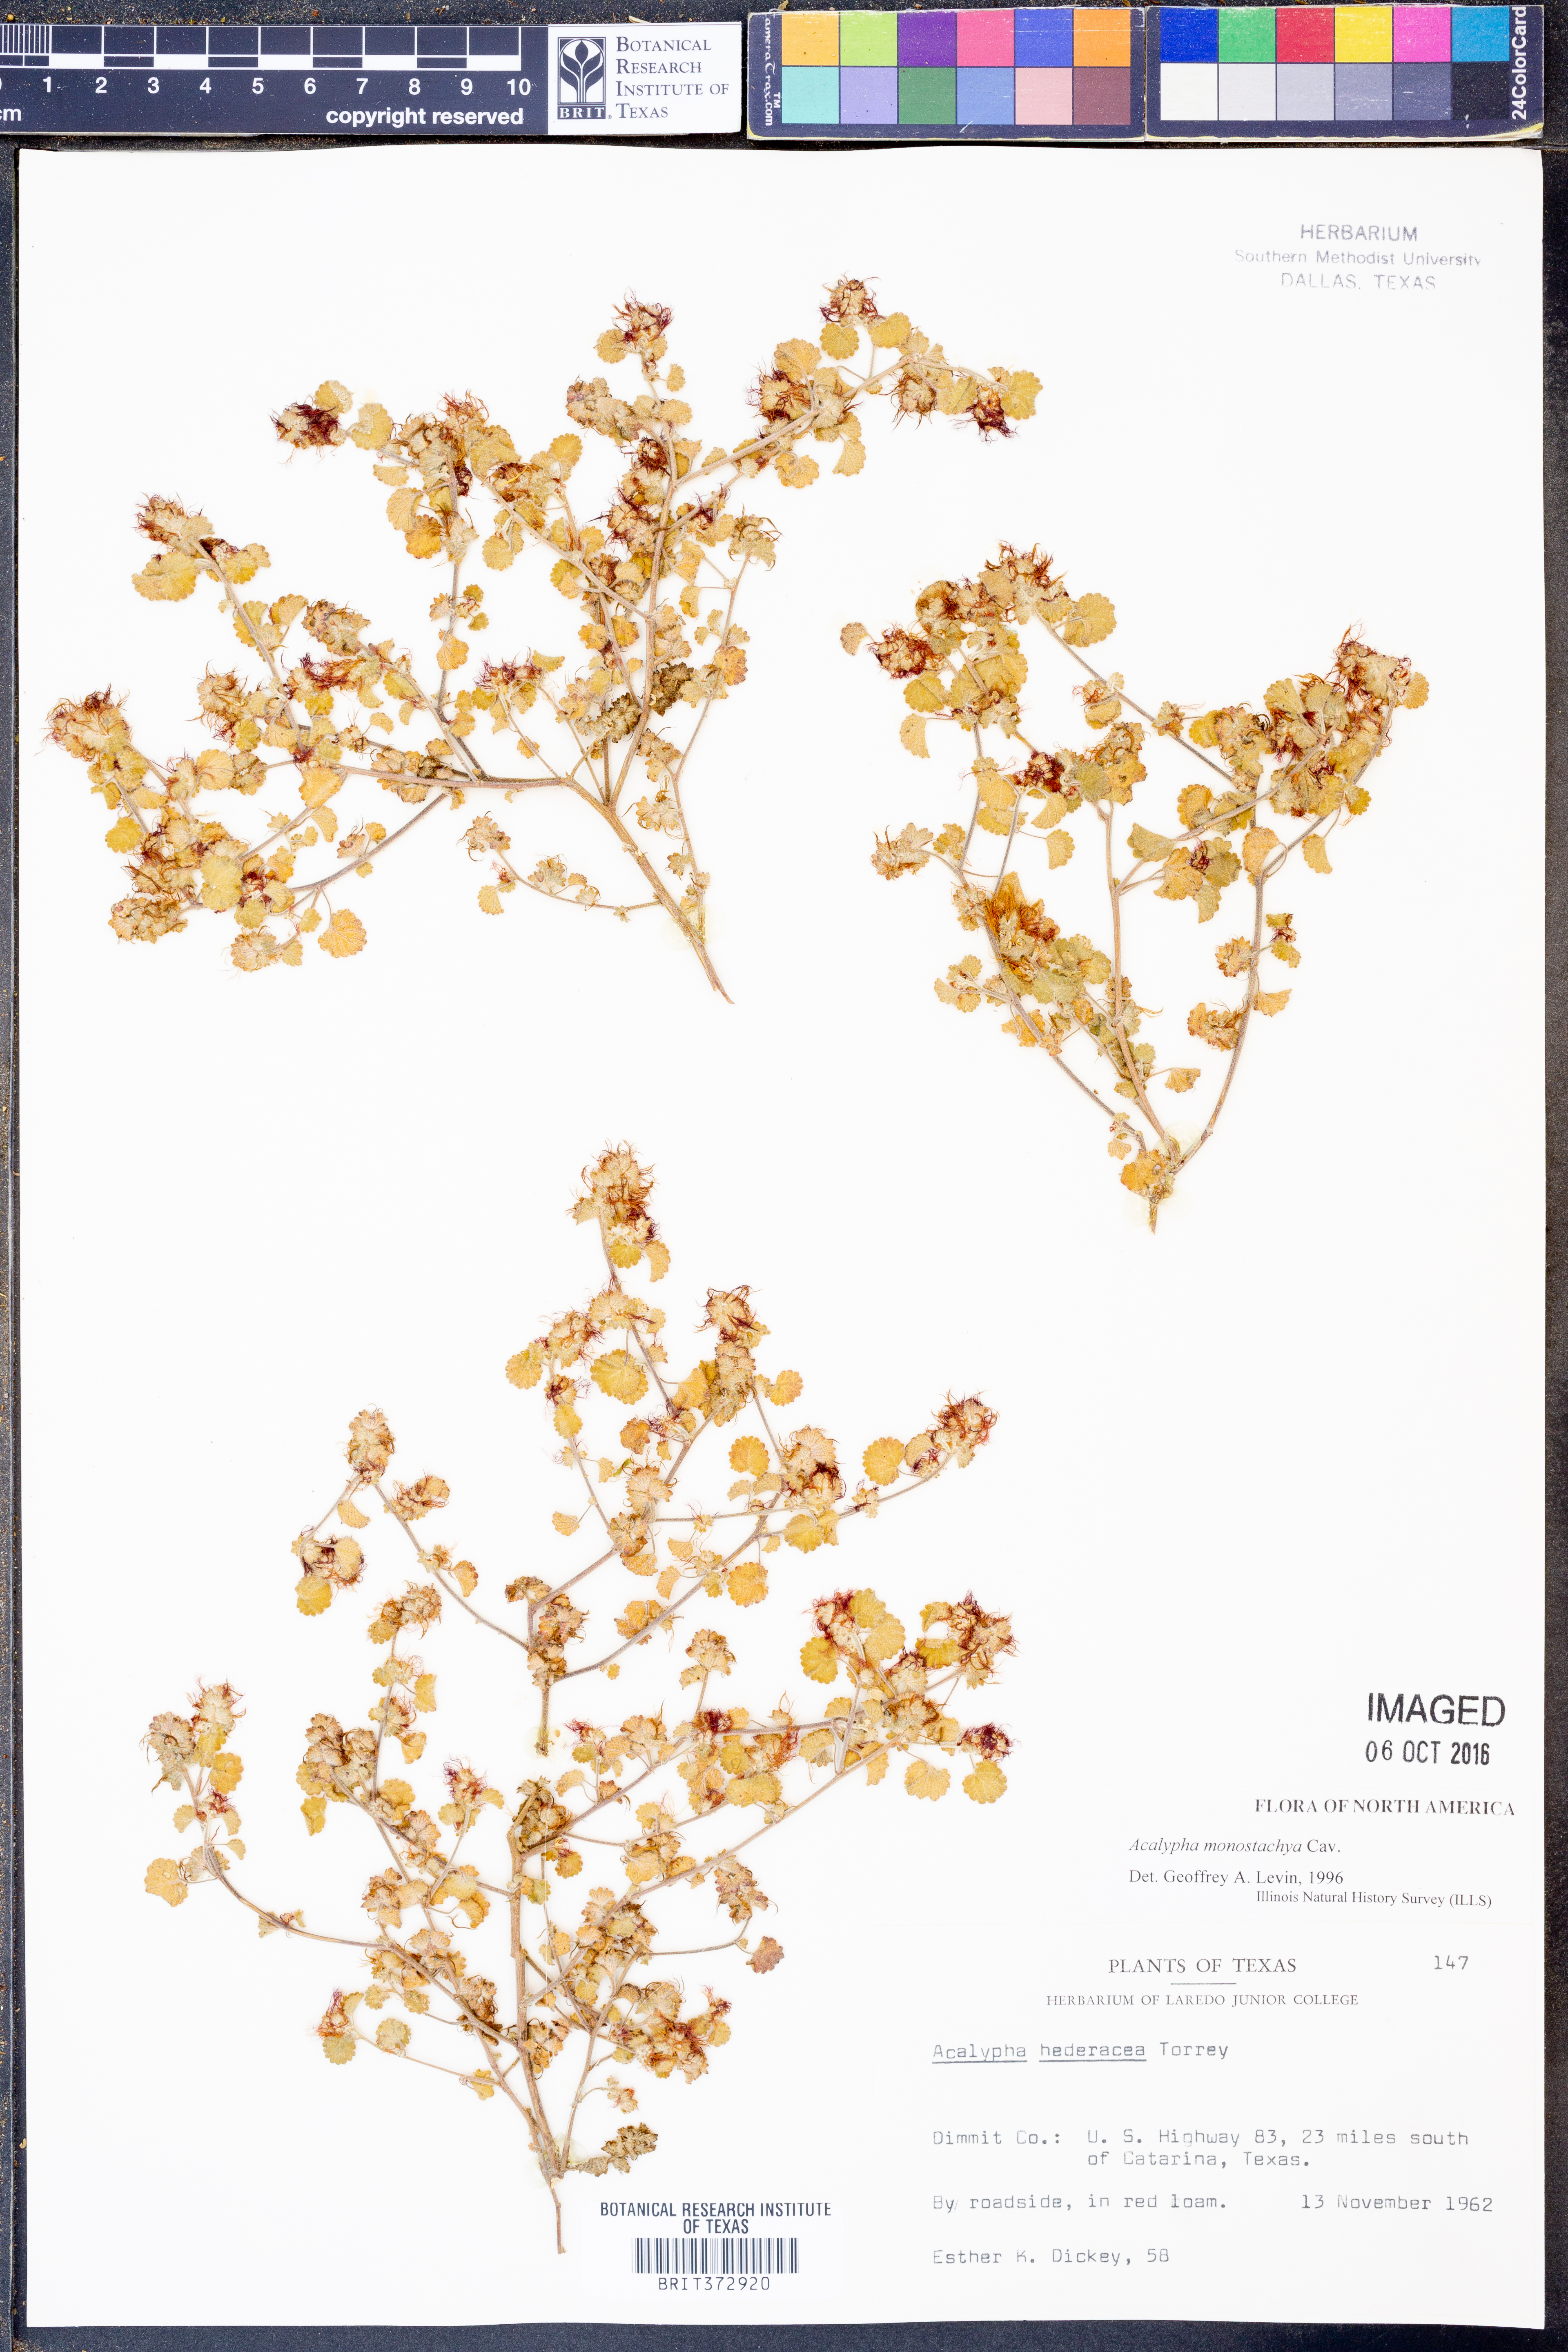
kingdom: Plantae
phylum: Tracheophyta
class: Magnoliopsida
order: Malpighiales
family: Euphorbiaceae
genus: Acalypha
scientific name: Acalypha monostachya
